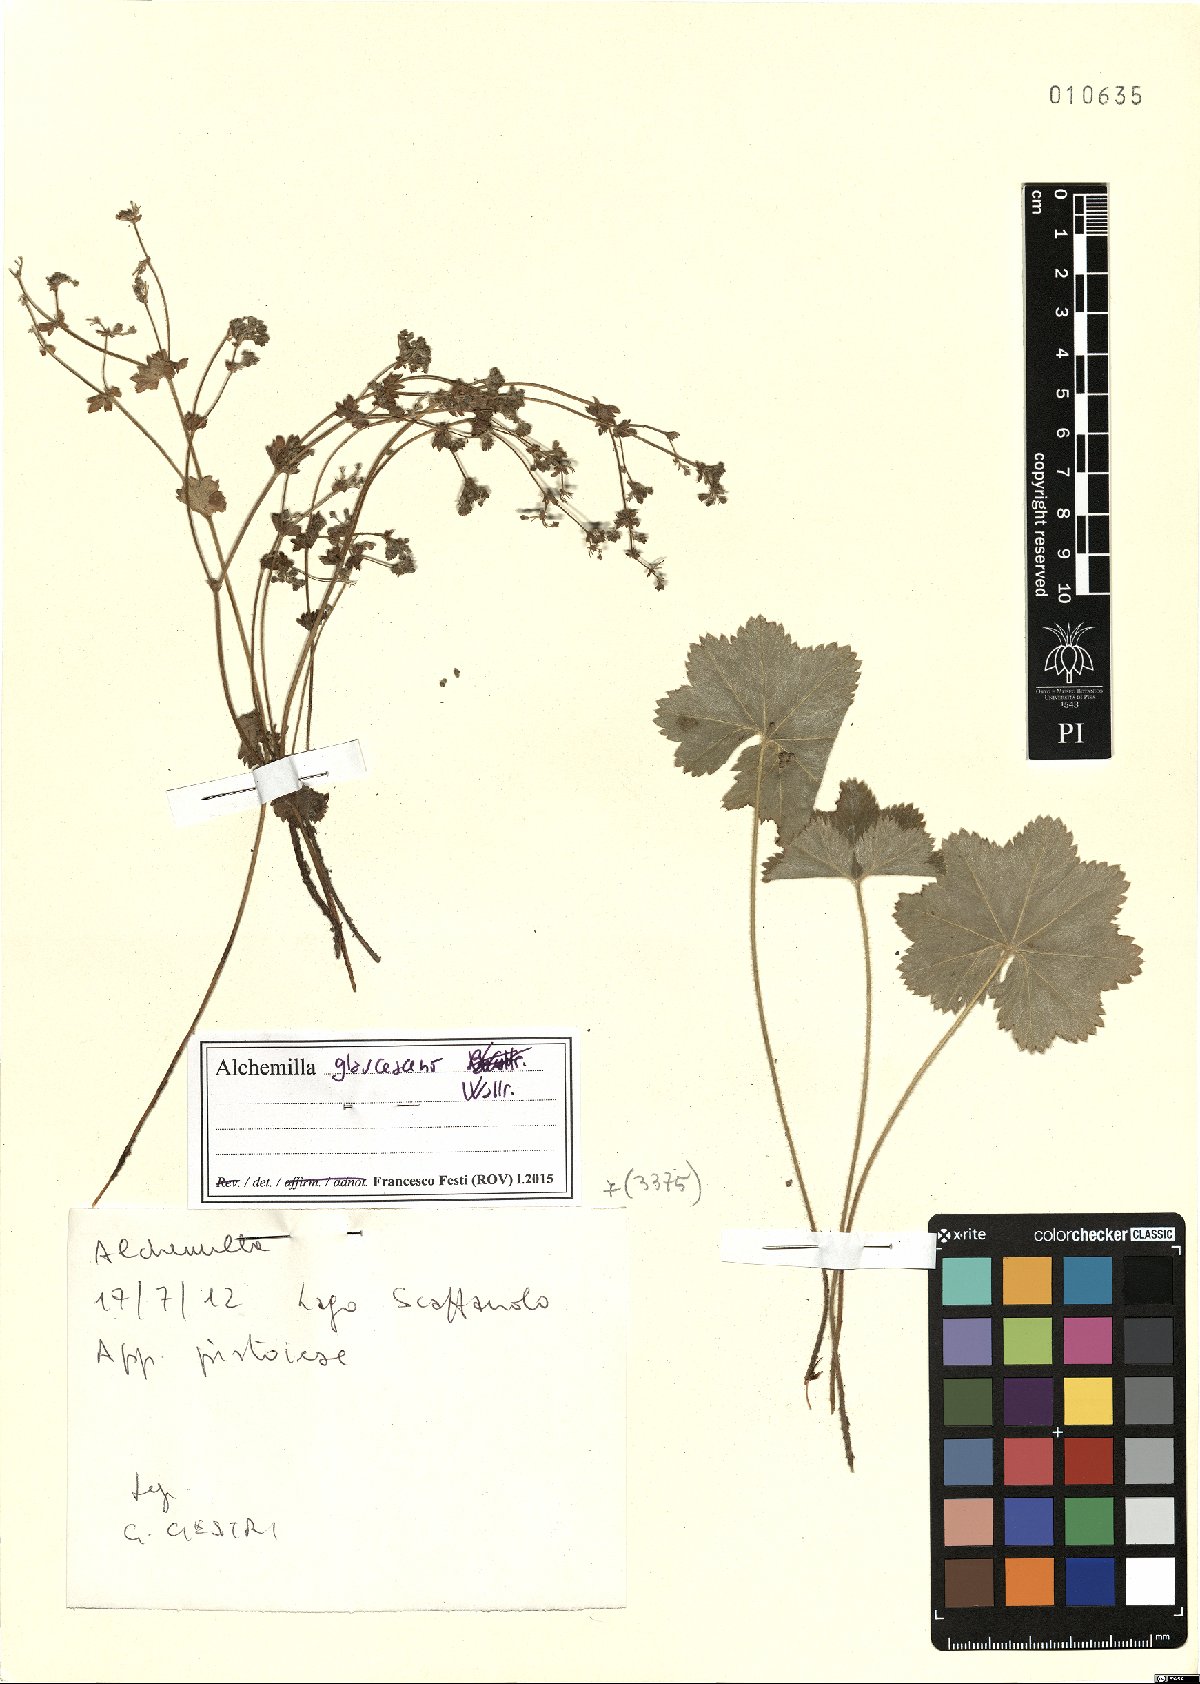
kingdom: Plantae
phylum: Tracheophyta
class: Magnoliopsida
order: Rosales
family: Rosaceae
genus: Alchemilla
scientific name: Alchemilla glaucescens
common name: Silky lady's mantle
